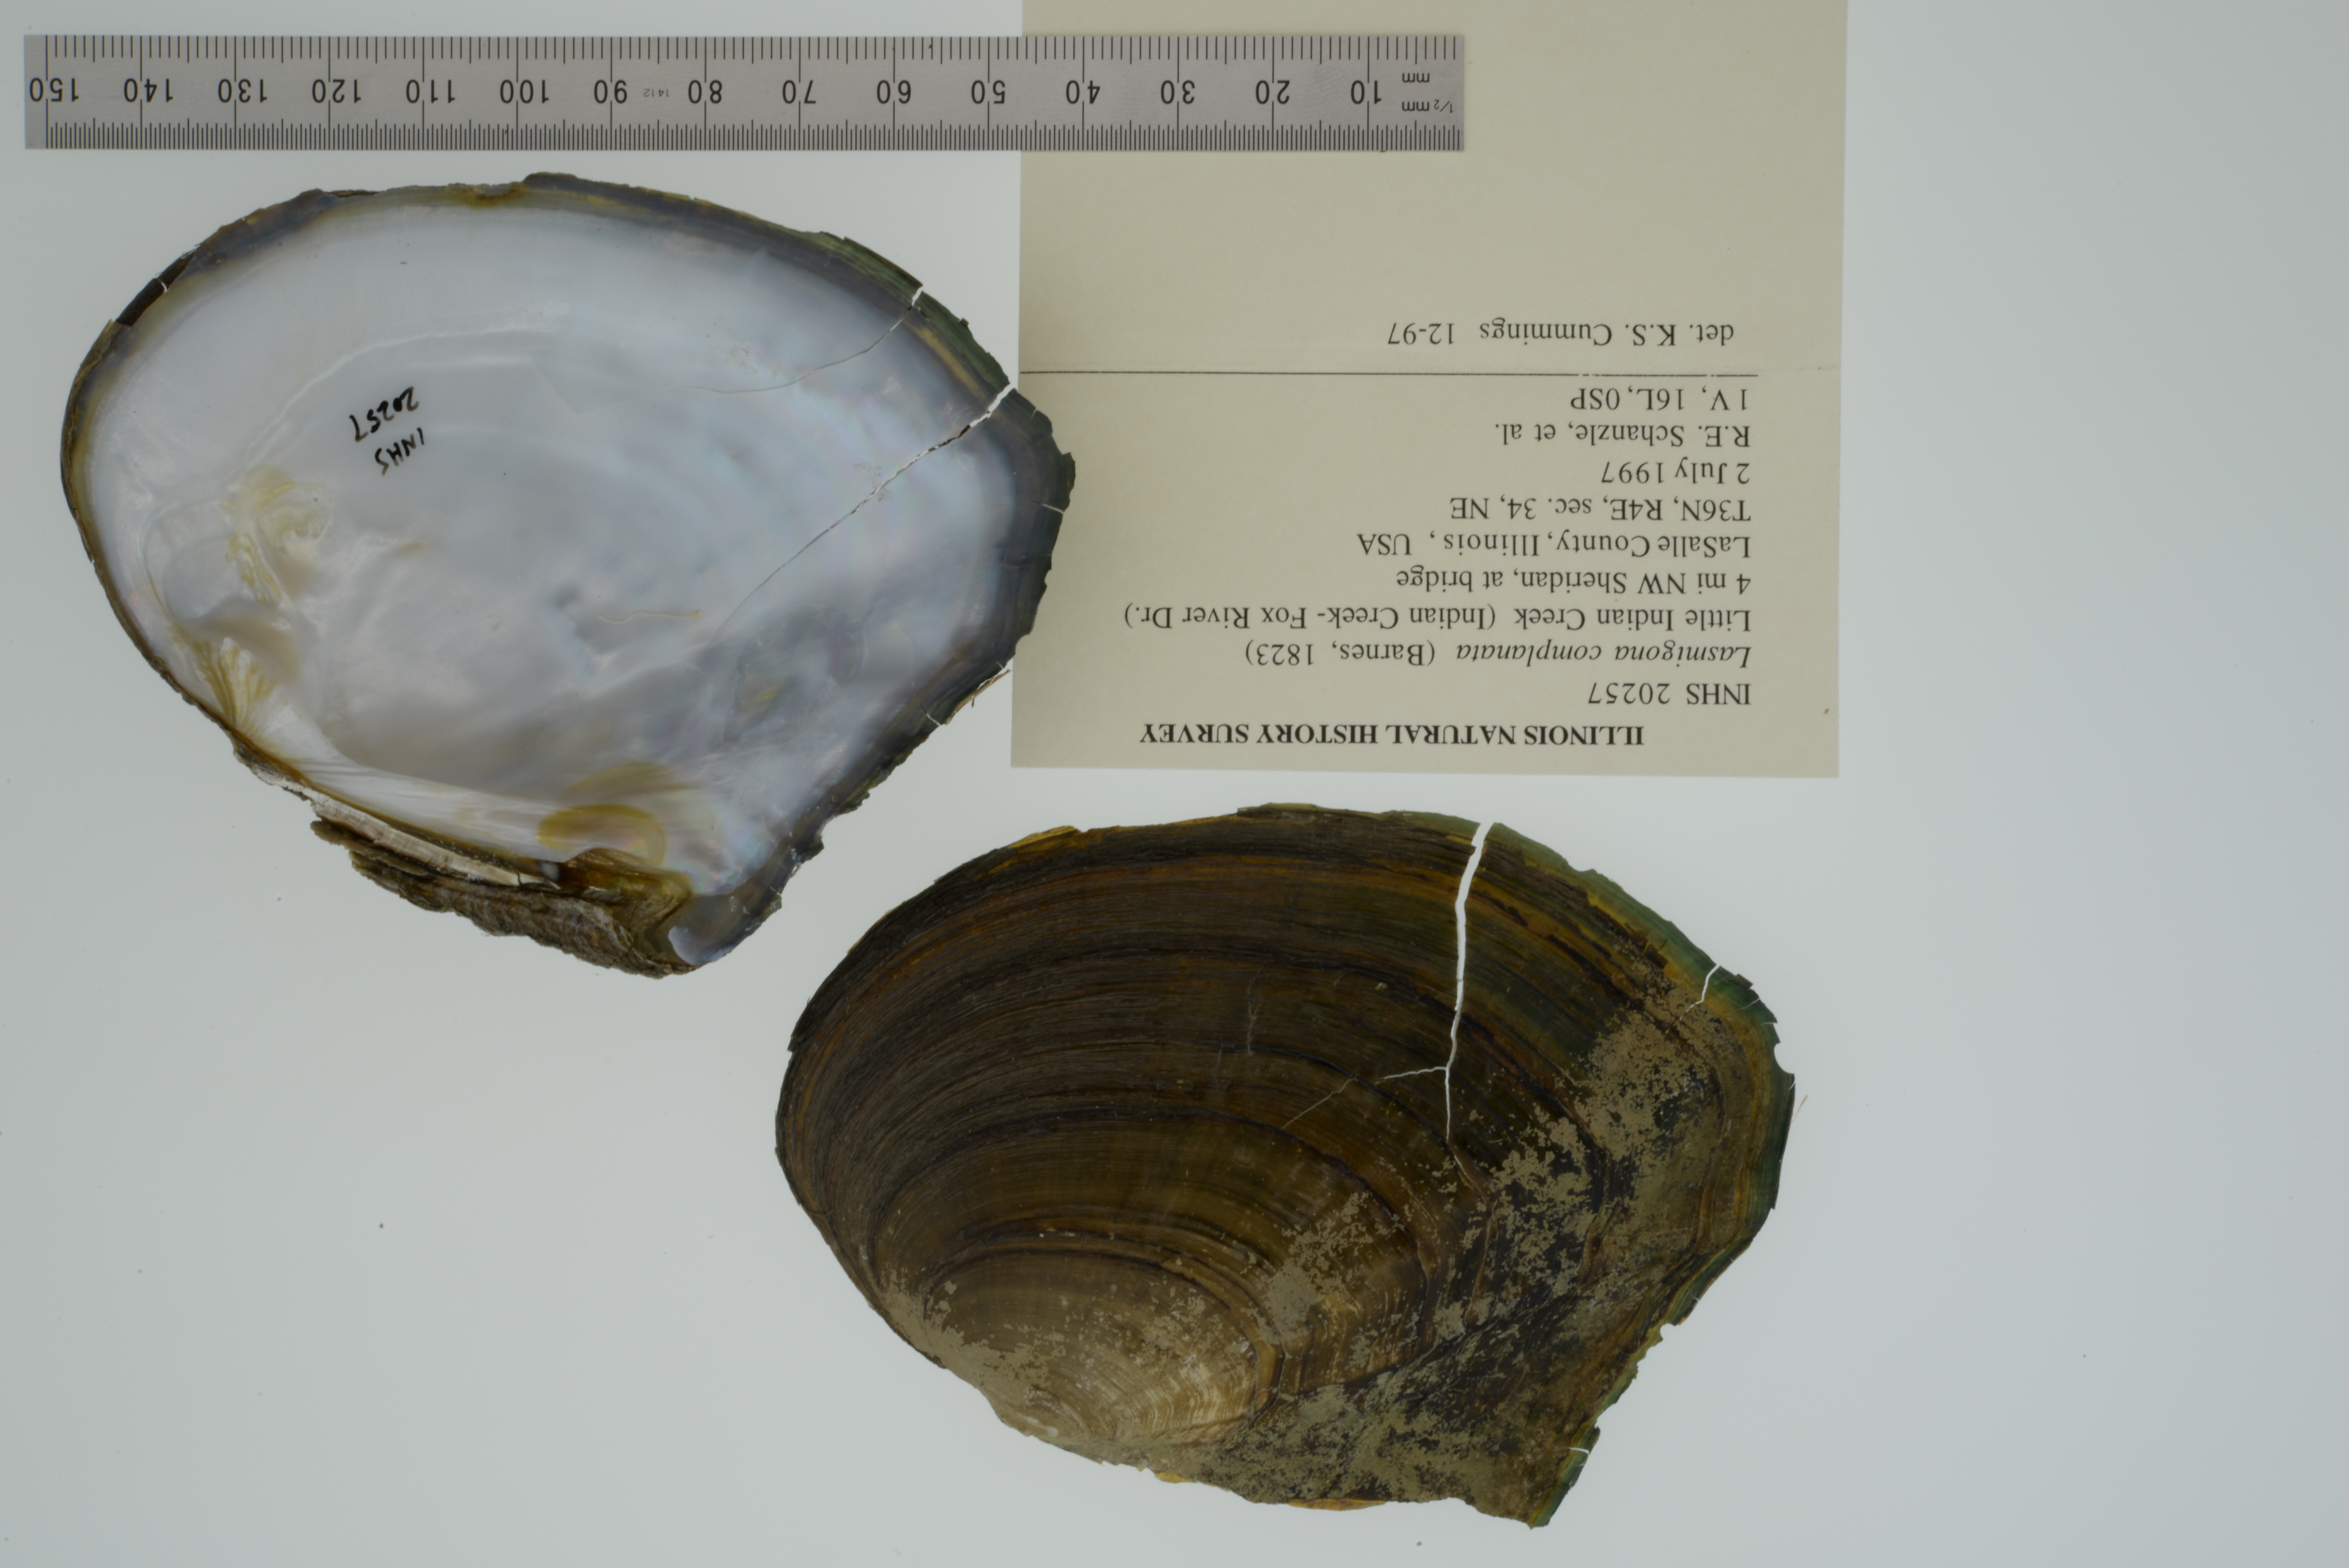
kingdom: Animalia
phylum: Mollusca
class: Bivalvia
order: Unionida
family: Unionidae
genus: Lasmigona
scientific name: Lasmigona complanata
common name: White heelsplitter
